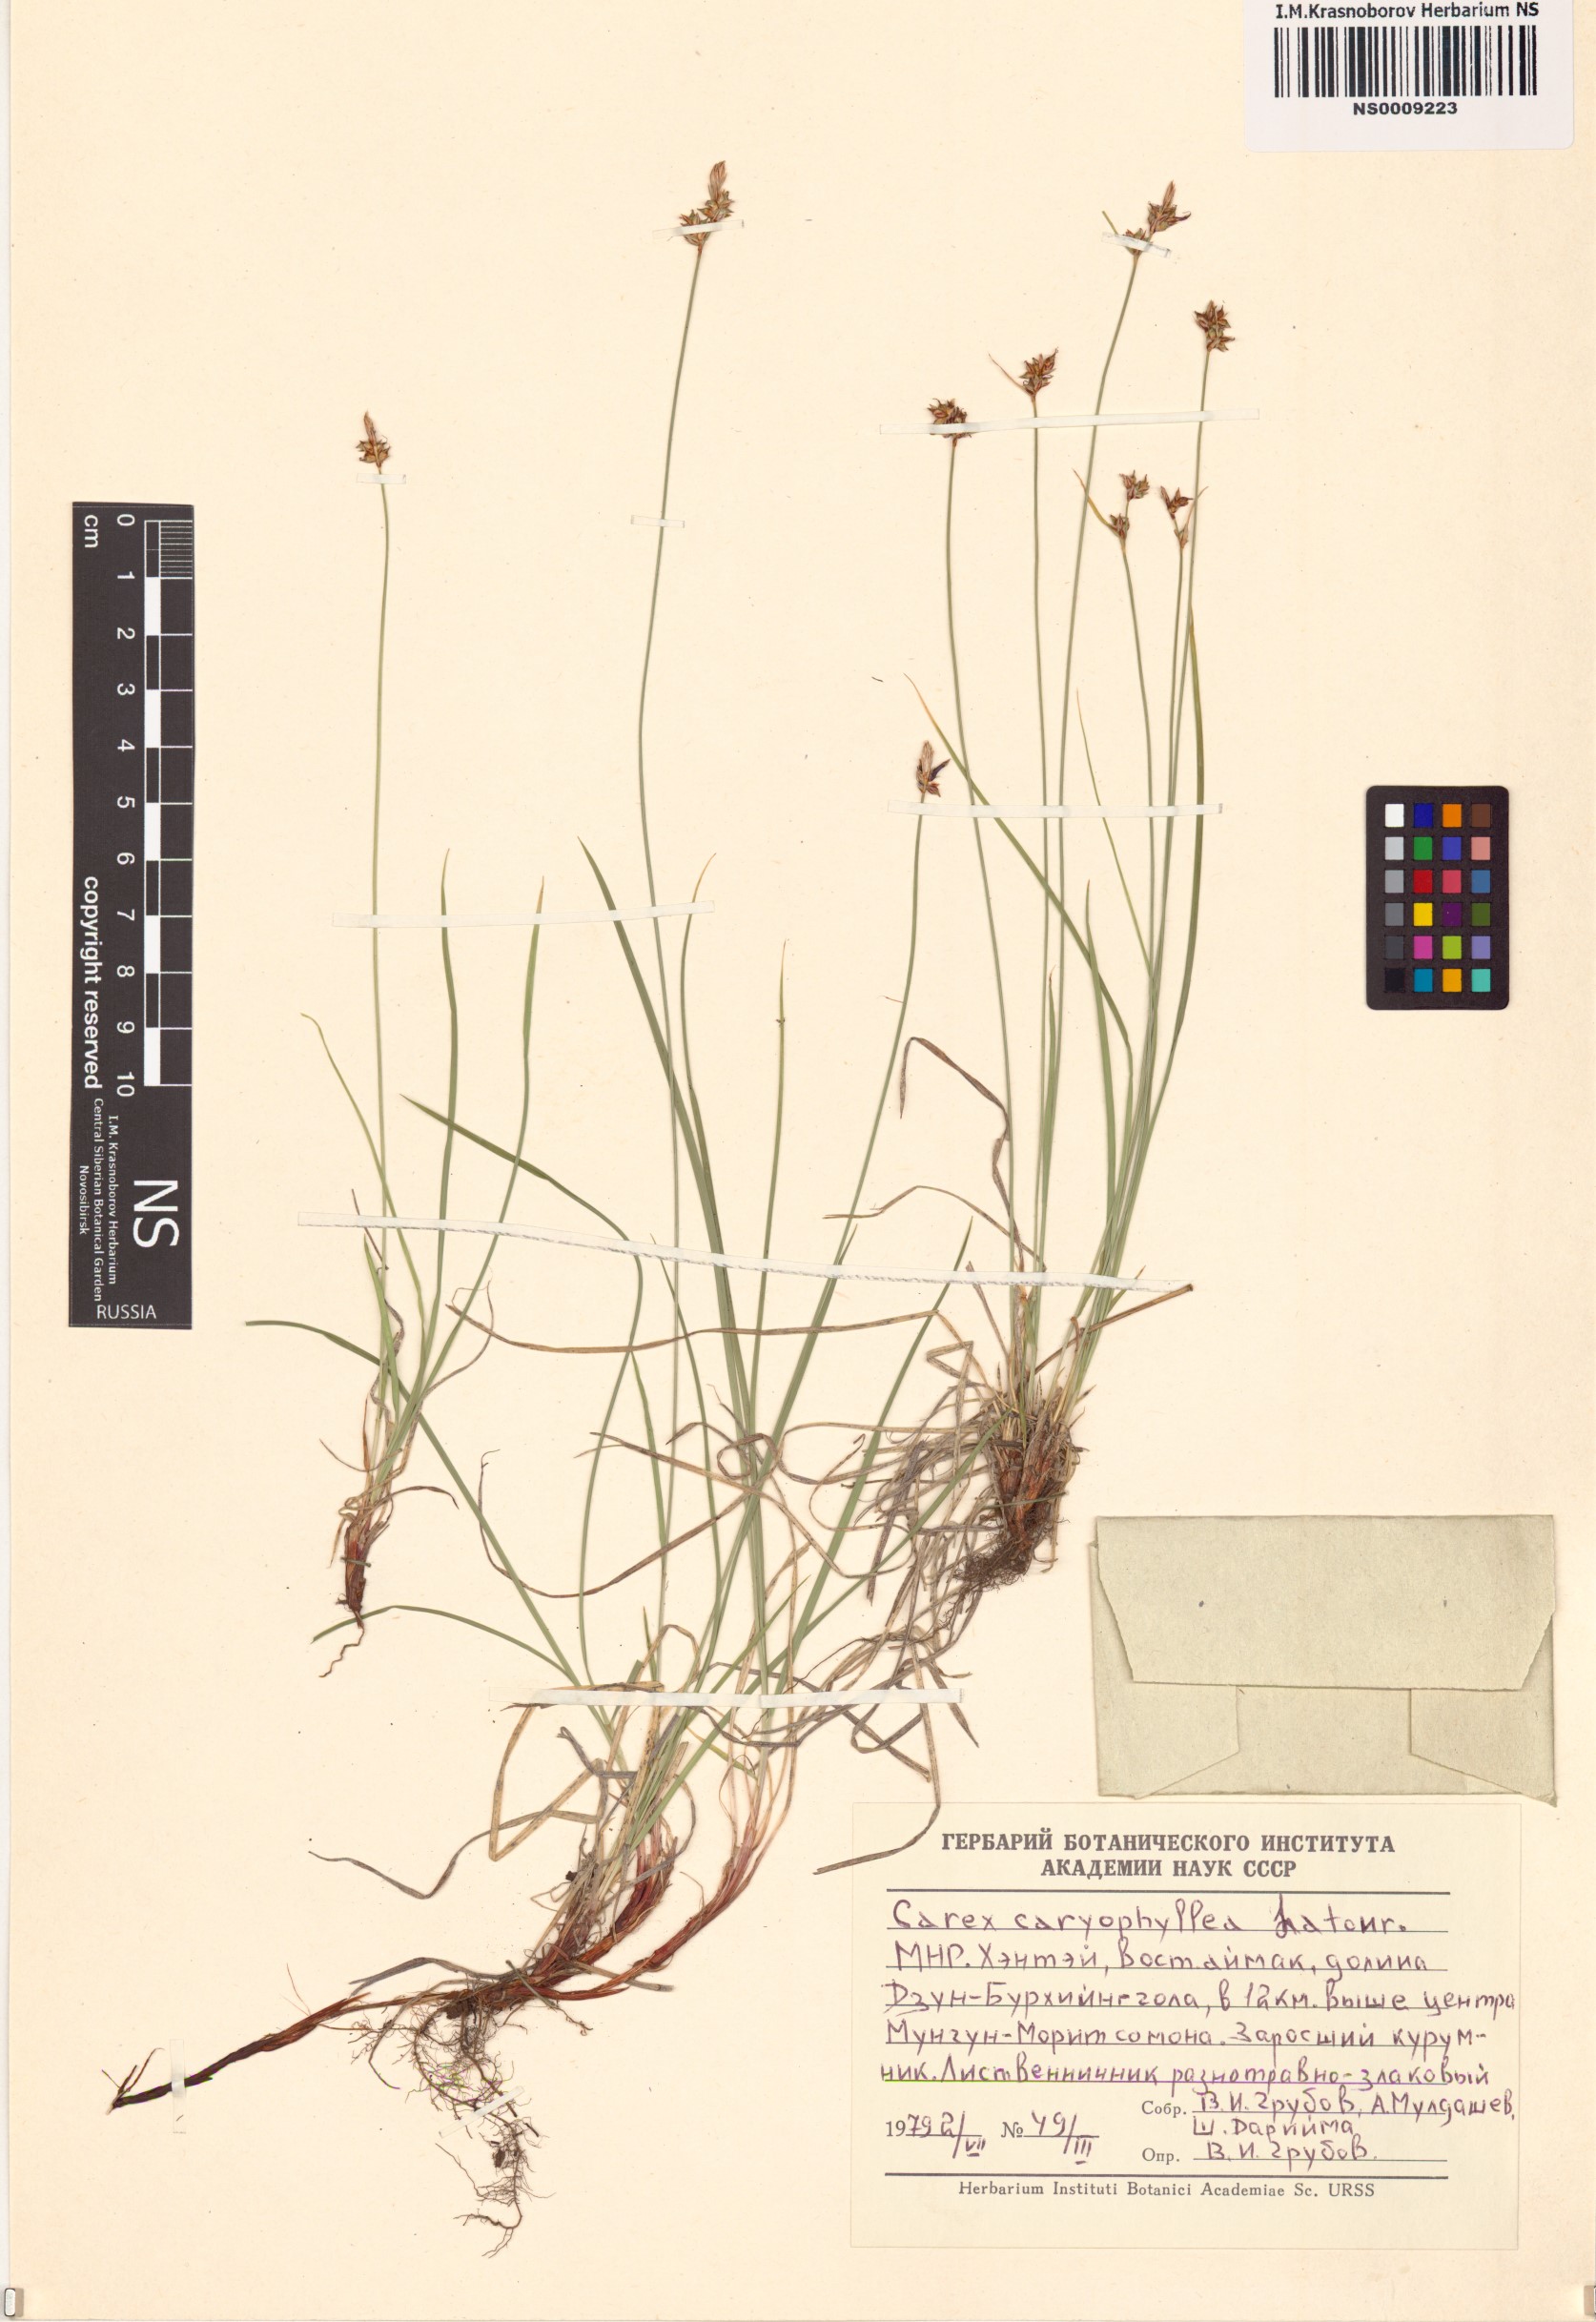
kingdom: Plantae
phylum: Tracheophyta
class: Liliopsida
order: Poales
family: Cyperaceae
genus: Carex
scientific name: Carex caryophyllea
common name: Spring sedge
